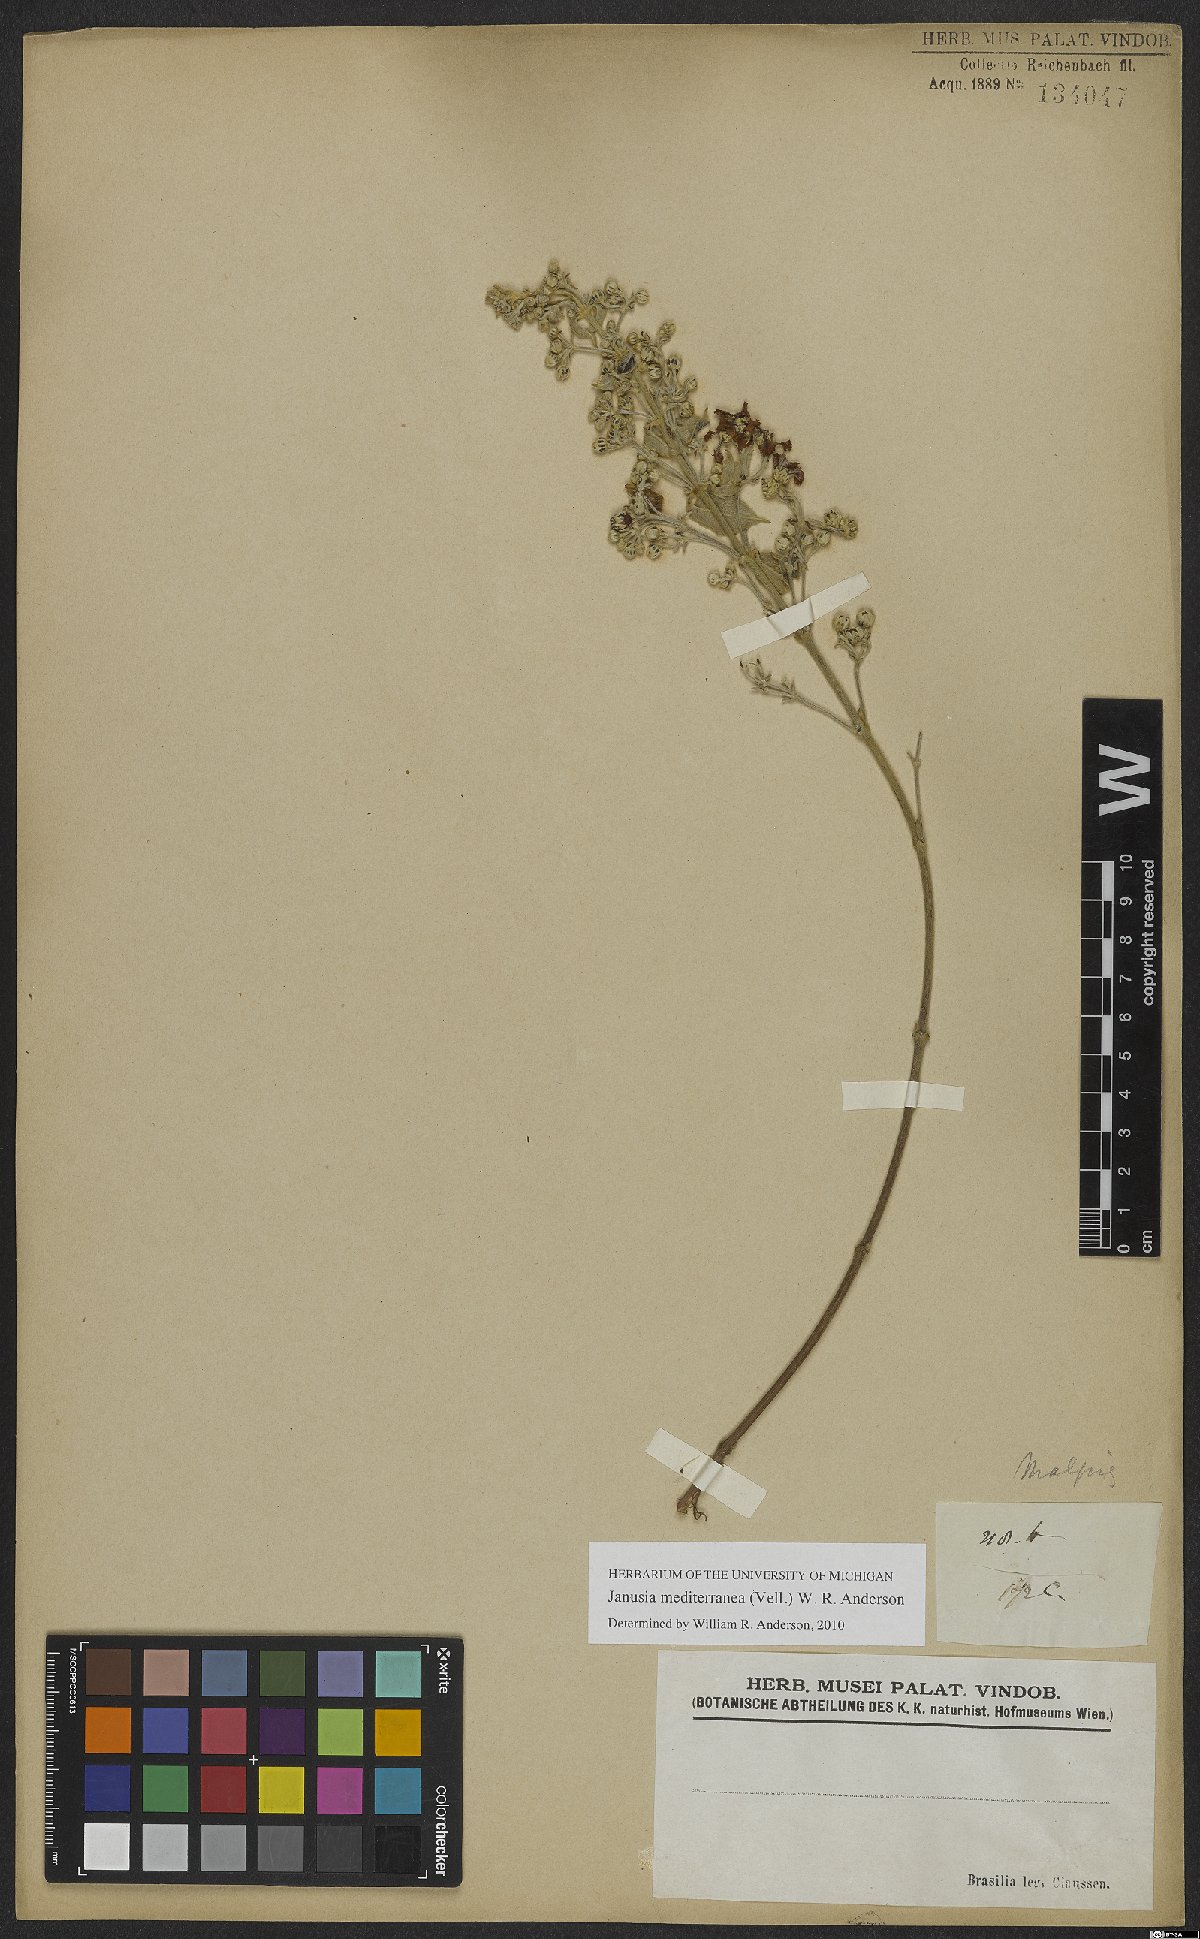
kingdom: Plantae
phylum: Tracheophyta
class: Magnoliopsida
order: Malpighiales
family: Malpighiaceae
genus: Janusia
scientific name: Janusia mediterranea
